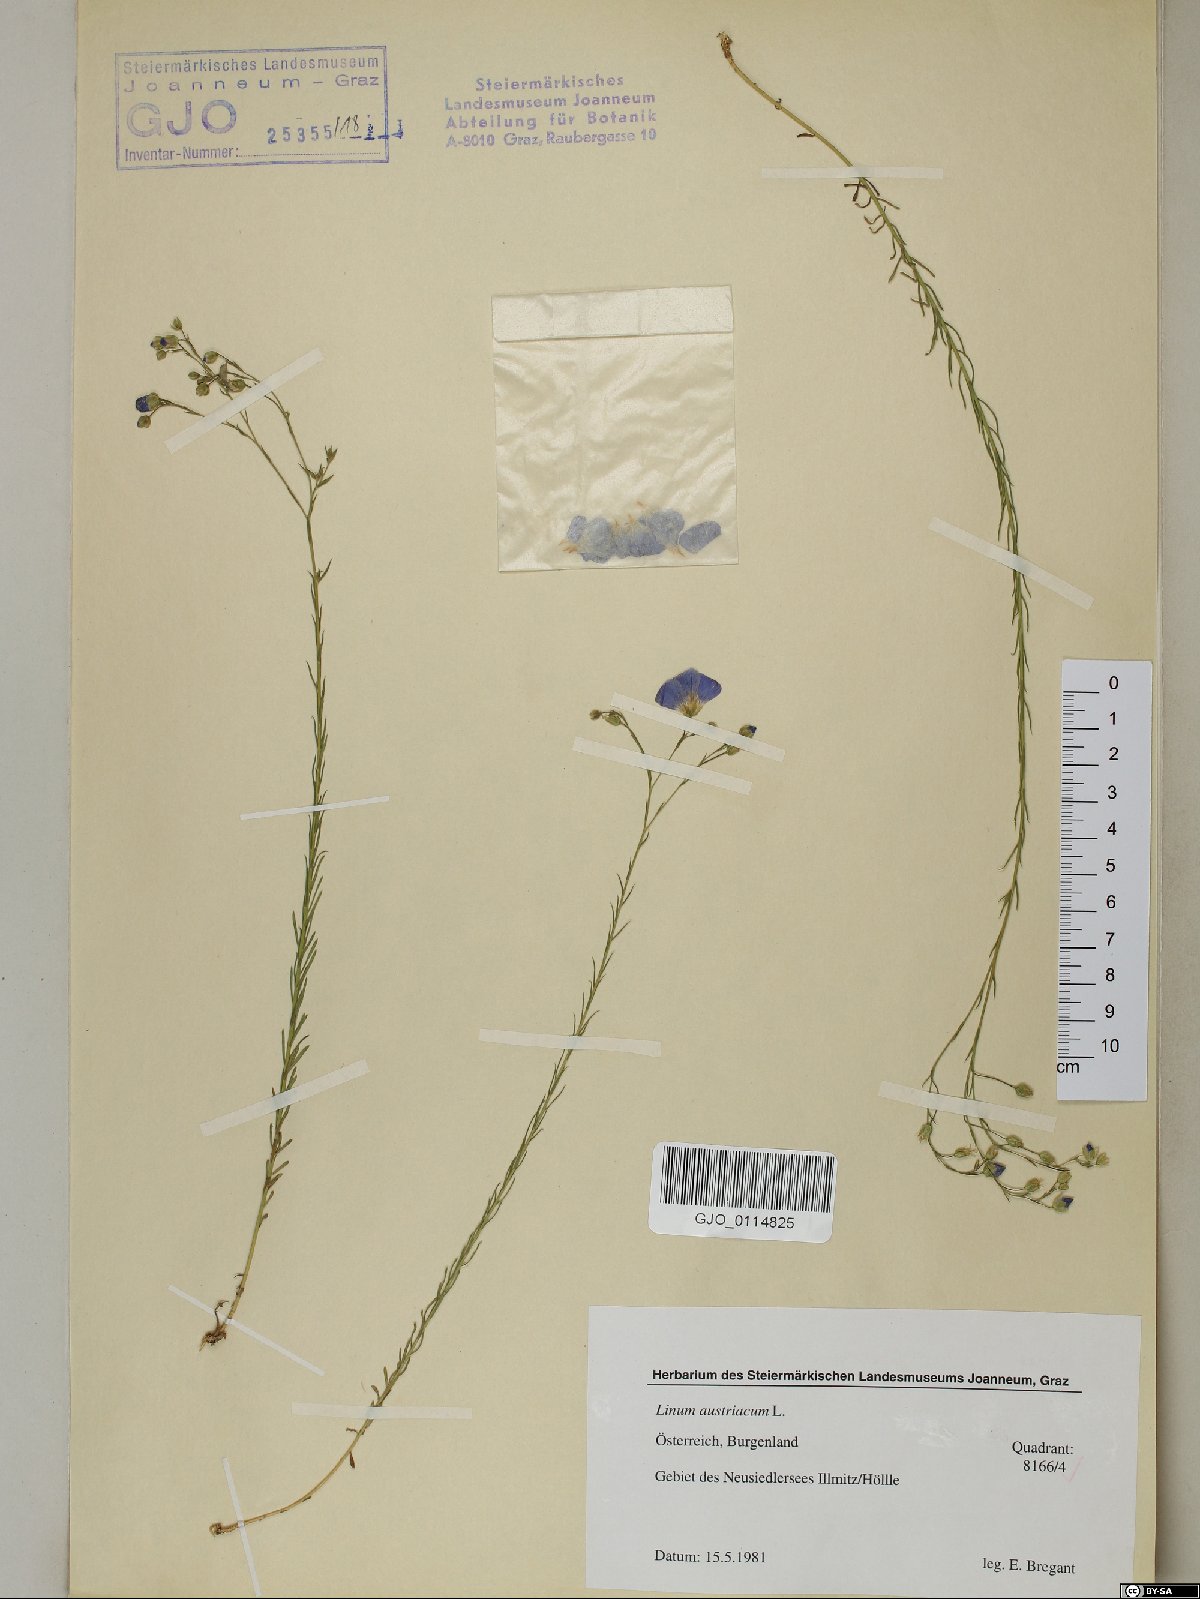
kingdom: Plantae
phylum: Tracheophyta
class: Magnoliopsida
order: Malpighiales
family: Linaceae
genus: Linum
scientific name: Linum austriacum
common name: Austrian flax
